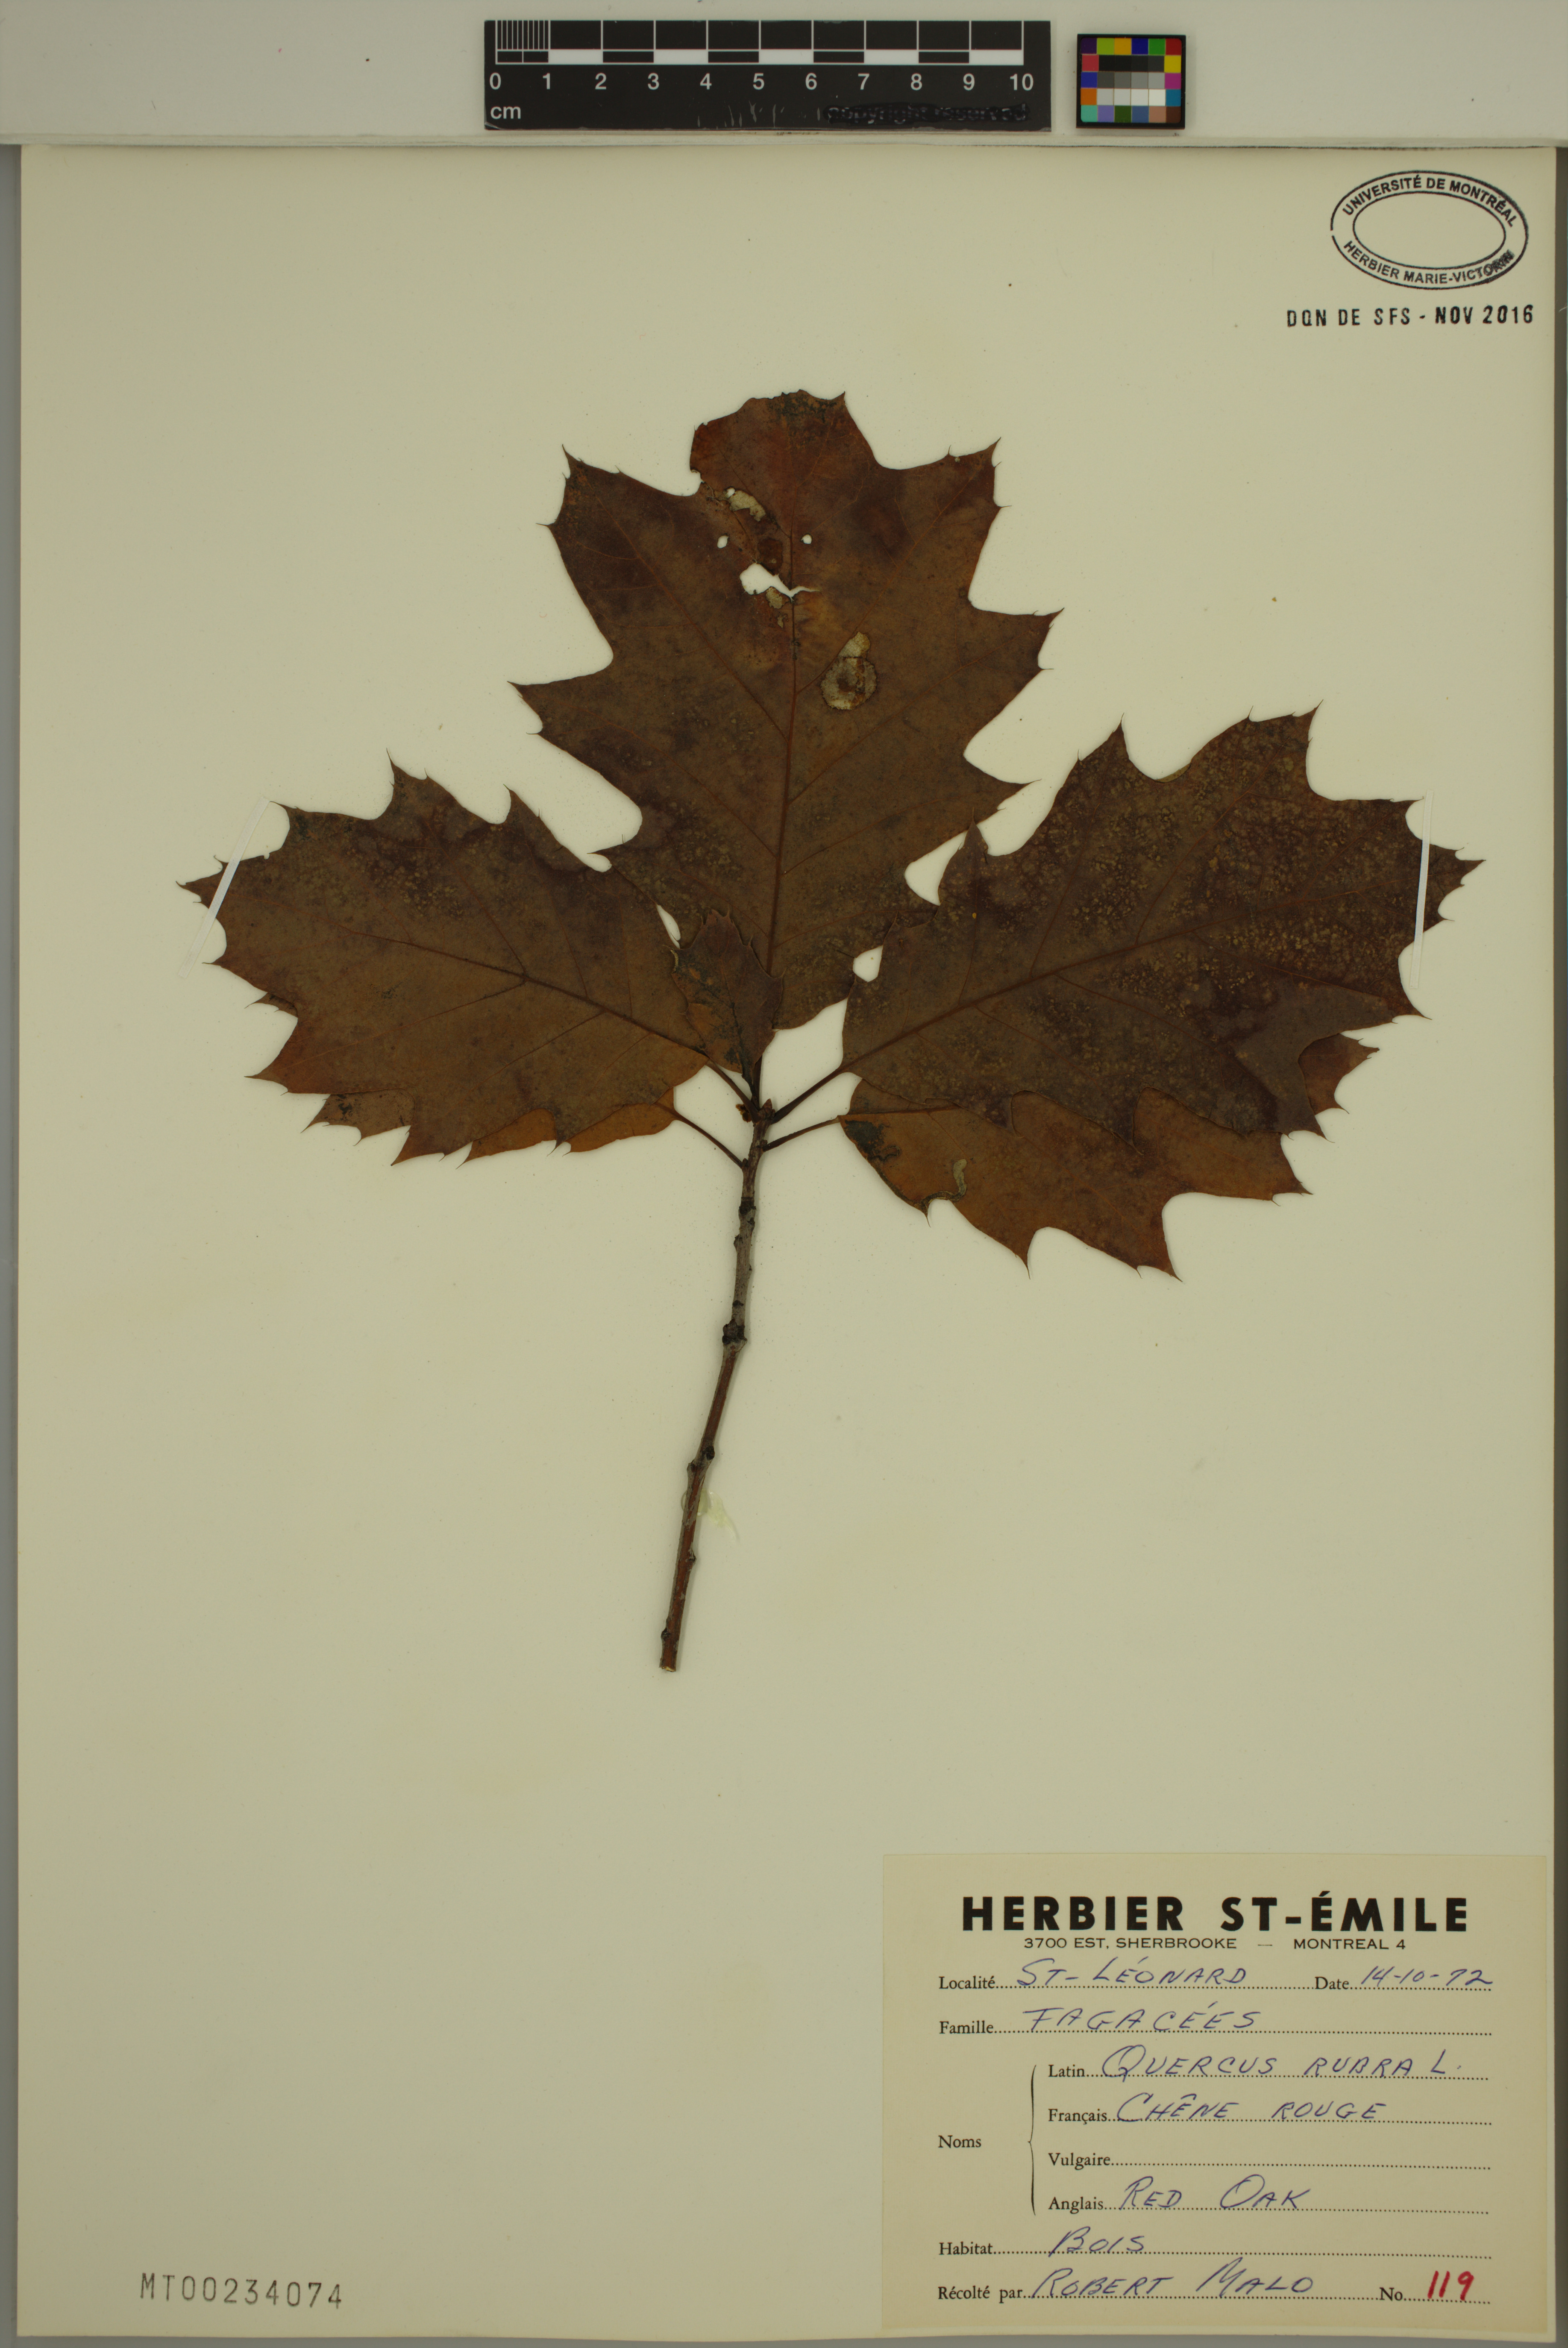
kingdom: Plantae
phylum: Tracheophyta
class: Magnoliopsida
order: Fagales
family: Fagaceae
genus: Quercus
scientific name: Quercus rubra
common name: Red oak
